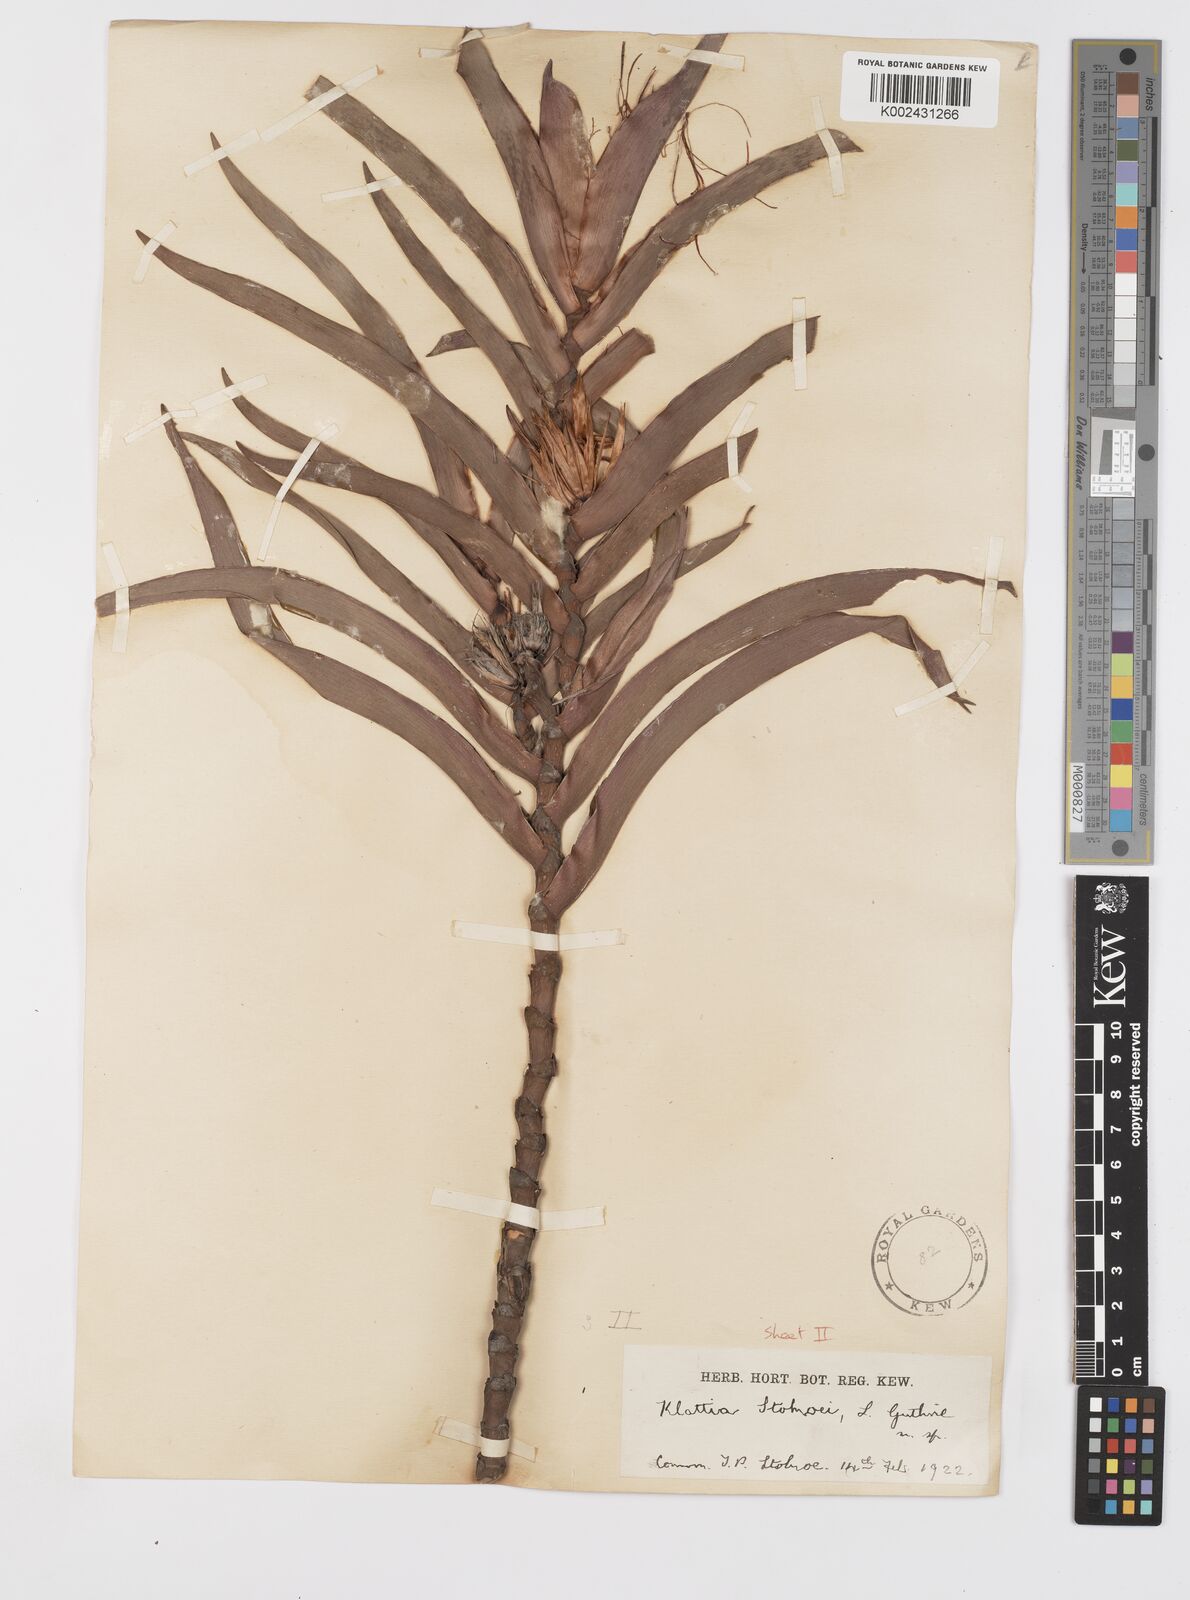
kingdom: Plantae
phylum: Tracheophyta
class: Liliopsida
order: Asparagales
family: Iridaceae
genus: Klattia
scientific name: Klattia stokoei
